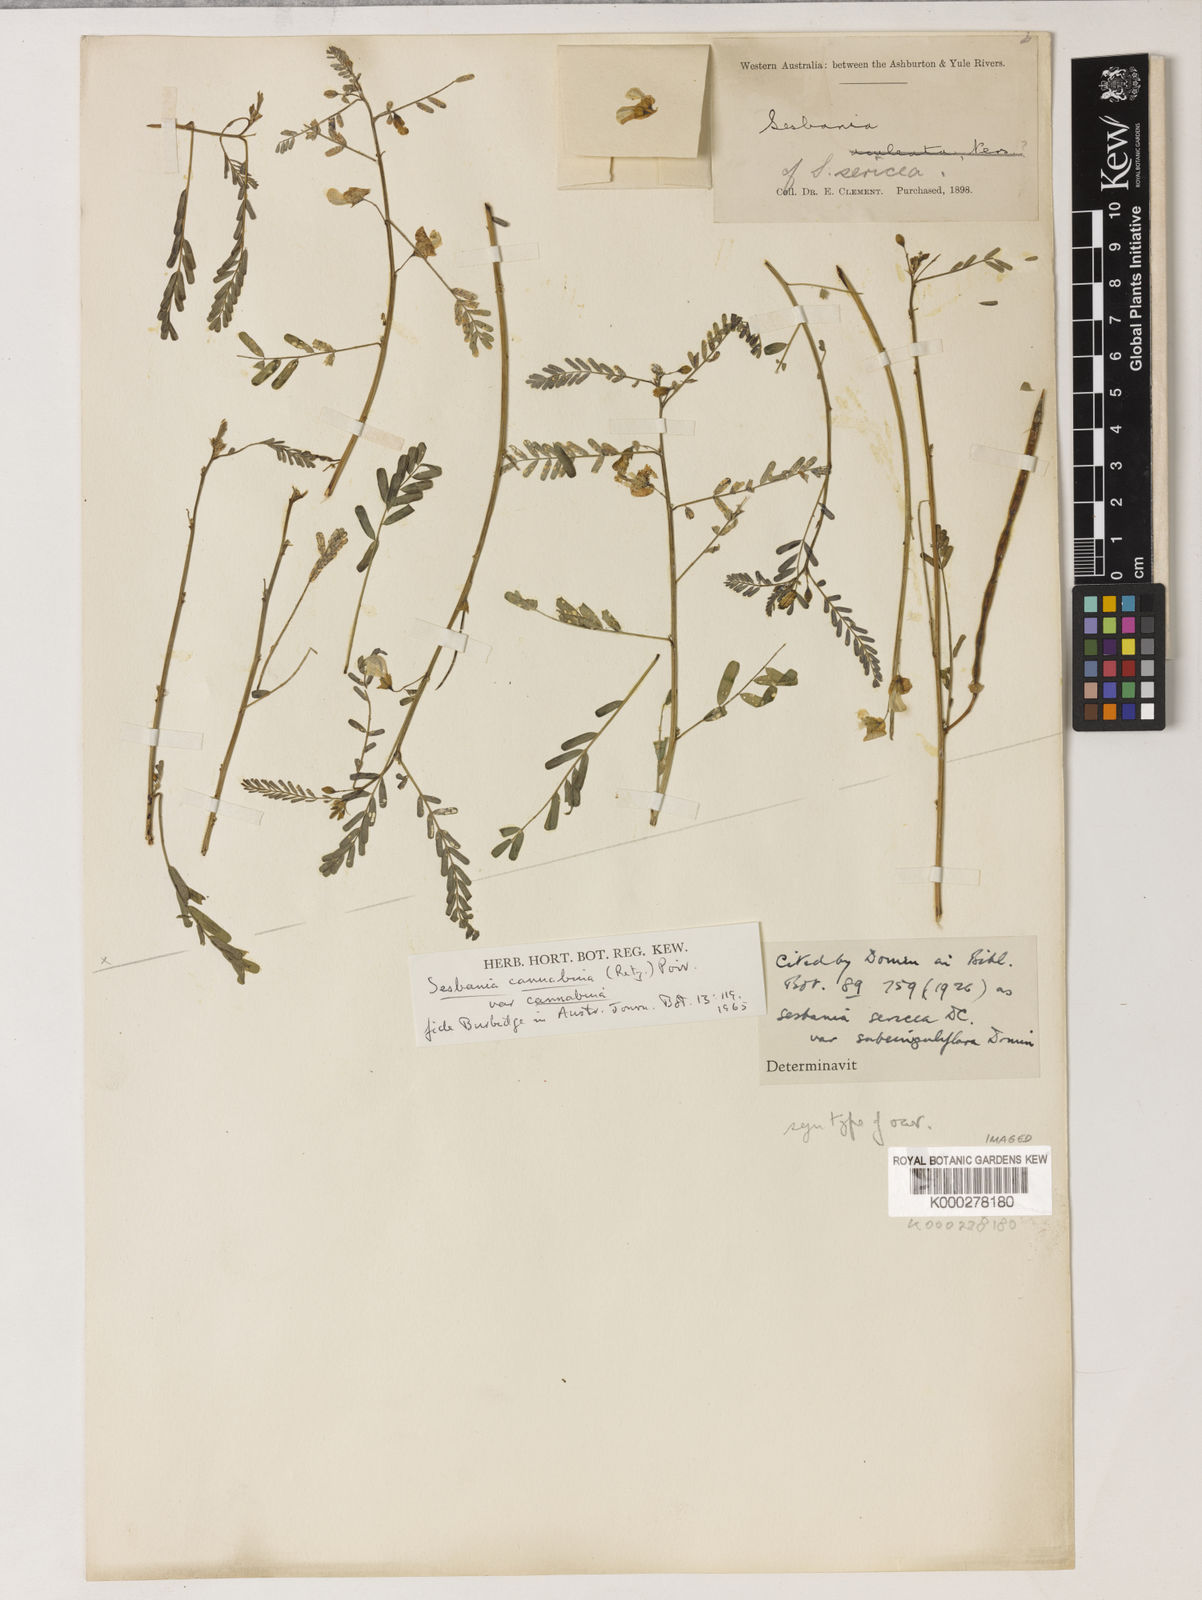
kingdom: Plantae
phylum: Tracheophyta
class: Magnoliopsida
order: Fabales
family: Fabaceae
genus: Sesbania
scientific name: Sesbania cannabina
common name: Canicha
